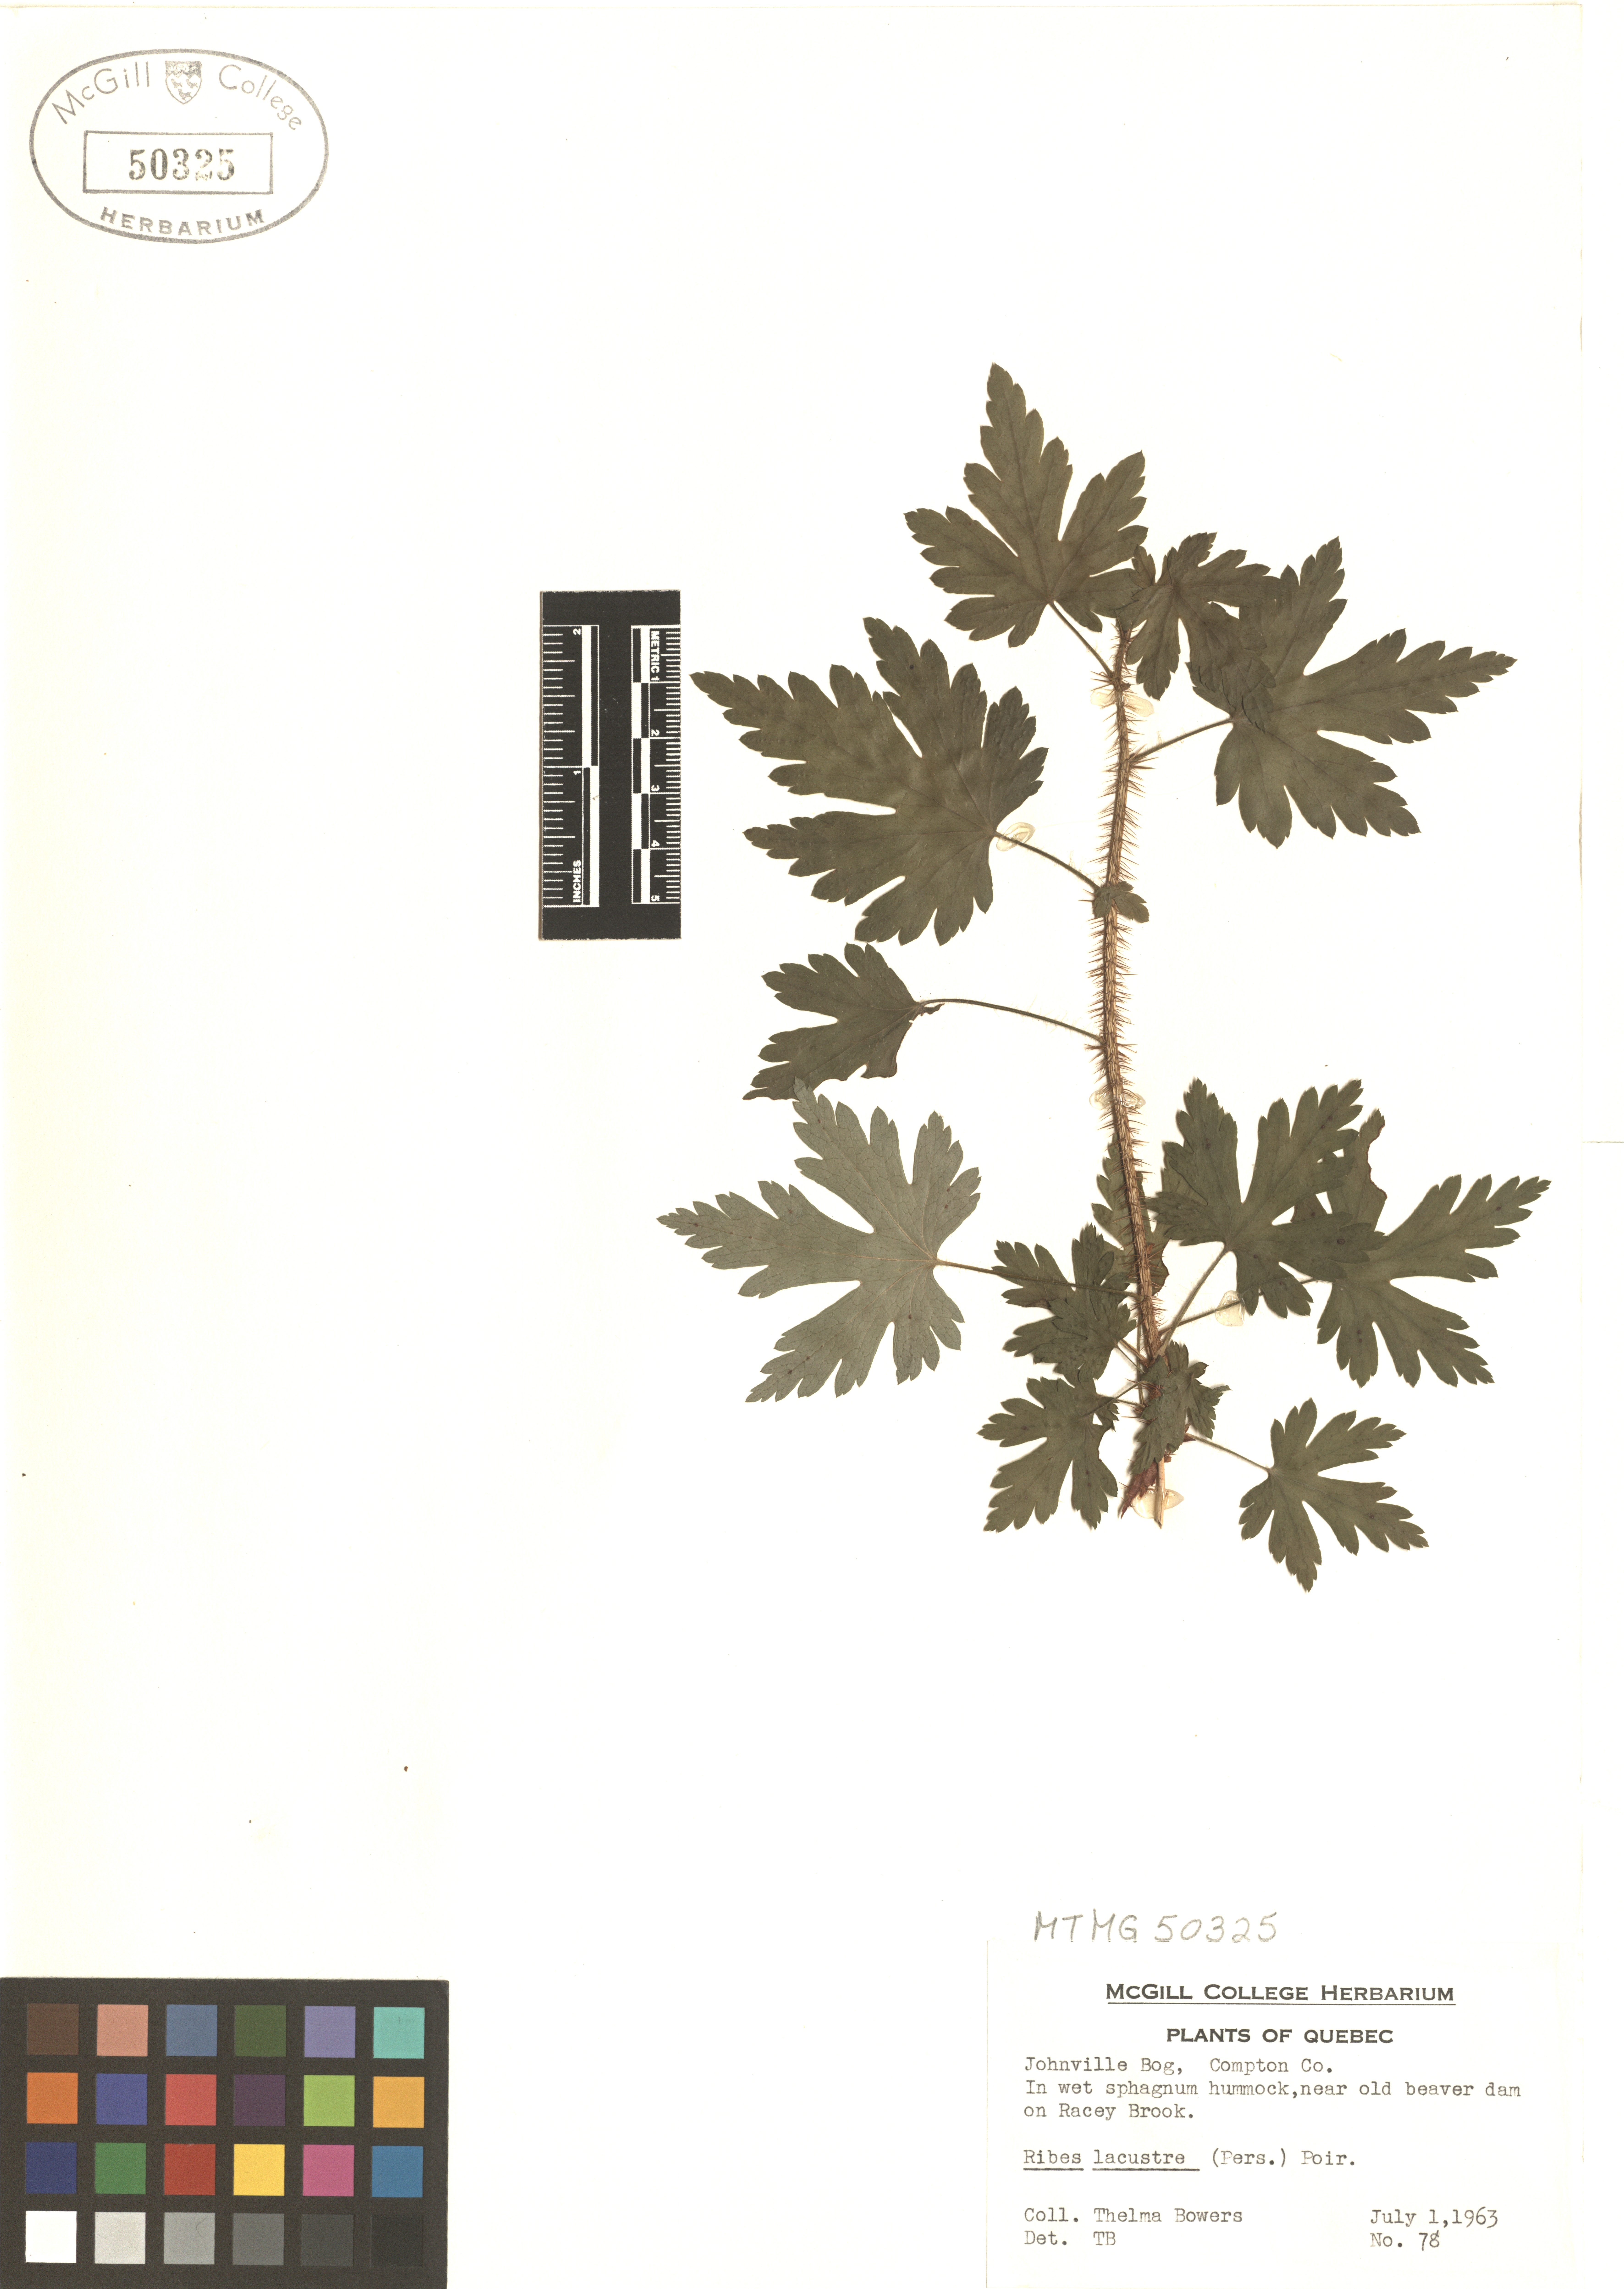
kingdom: Plantae
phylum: Tracheophyta
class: Magnoliopsida
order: Saxifragales
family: Grossulariaceae
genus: Ribes
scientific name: Ribes lacustre
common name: Black gooseberry
